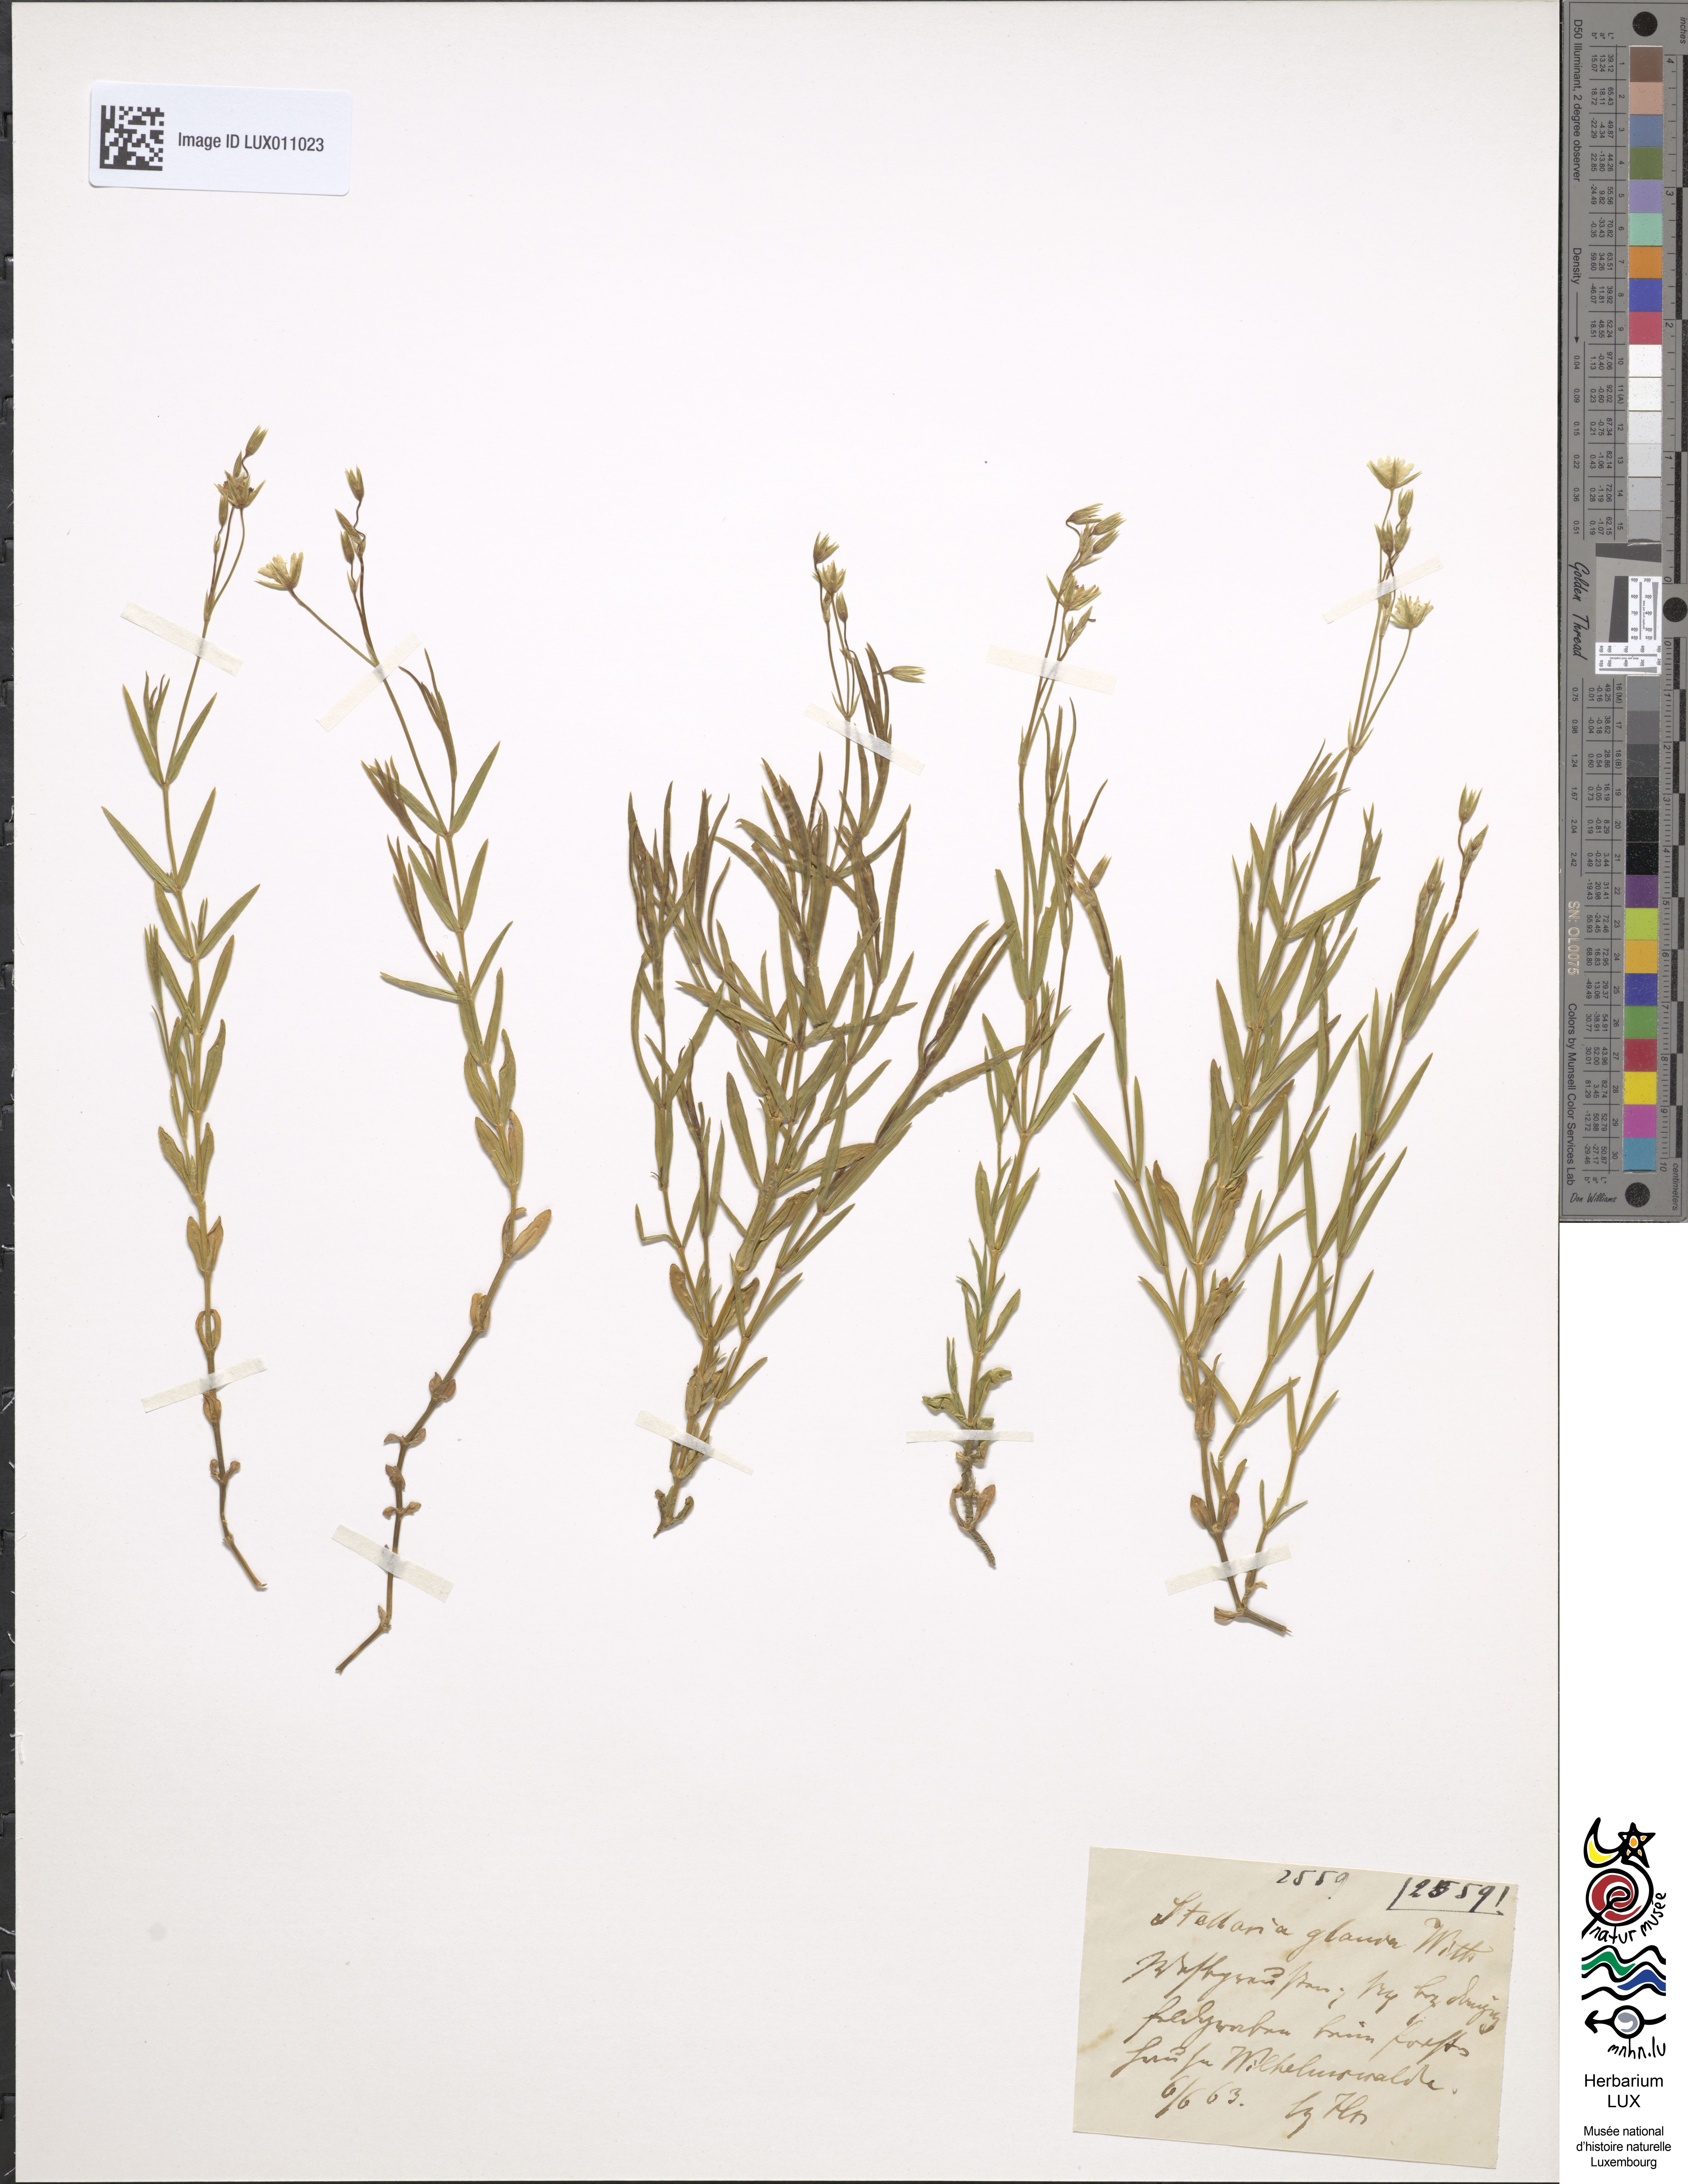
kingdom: Plantae
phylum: Tracheophyta
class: Magnoliopsida
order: Caryophyllales
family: Caryophyllaceae
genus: Stellaria
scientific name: Stellaria palustris
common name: Marsh stitchwort
